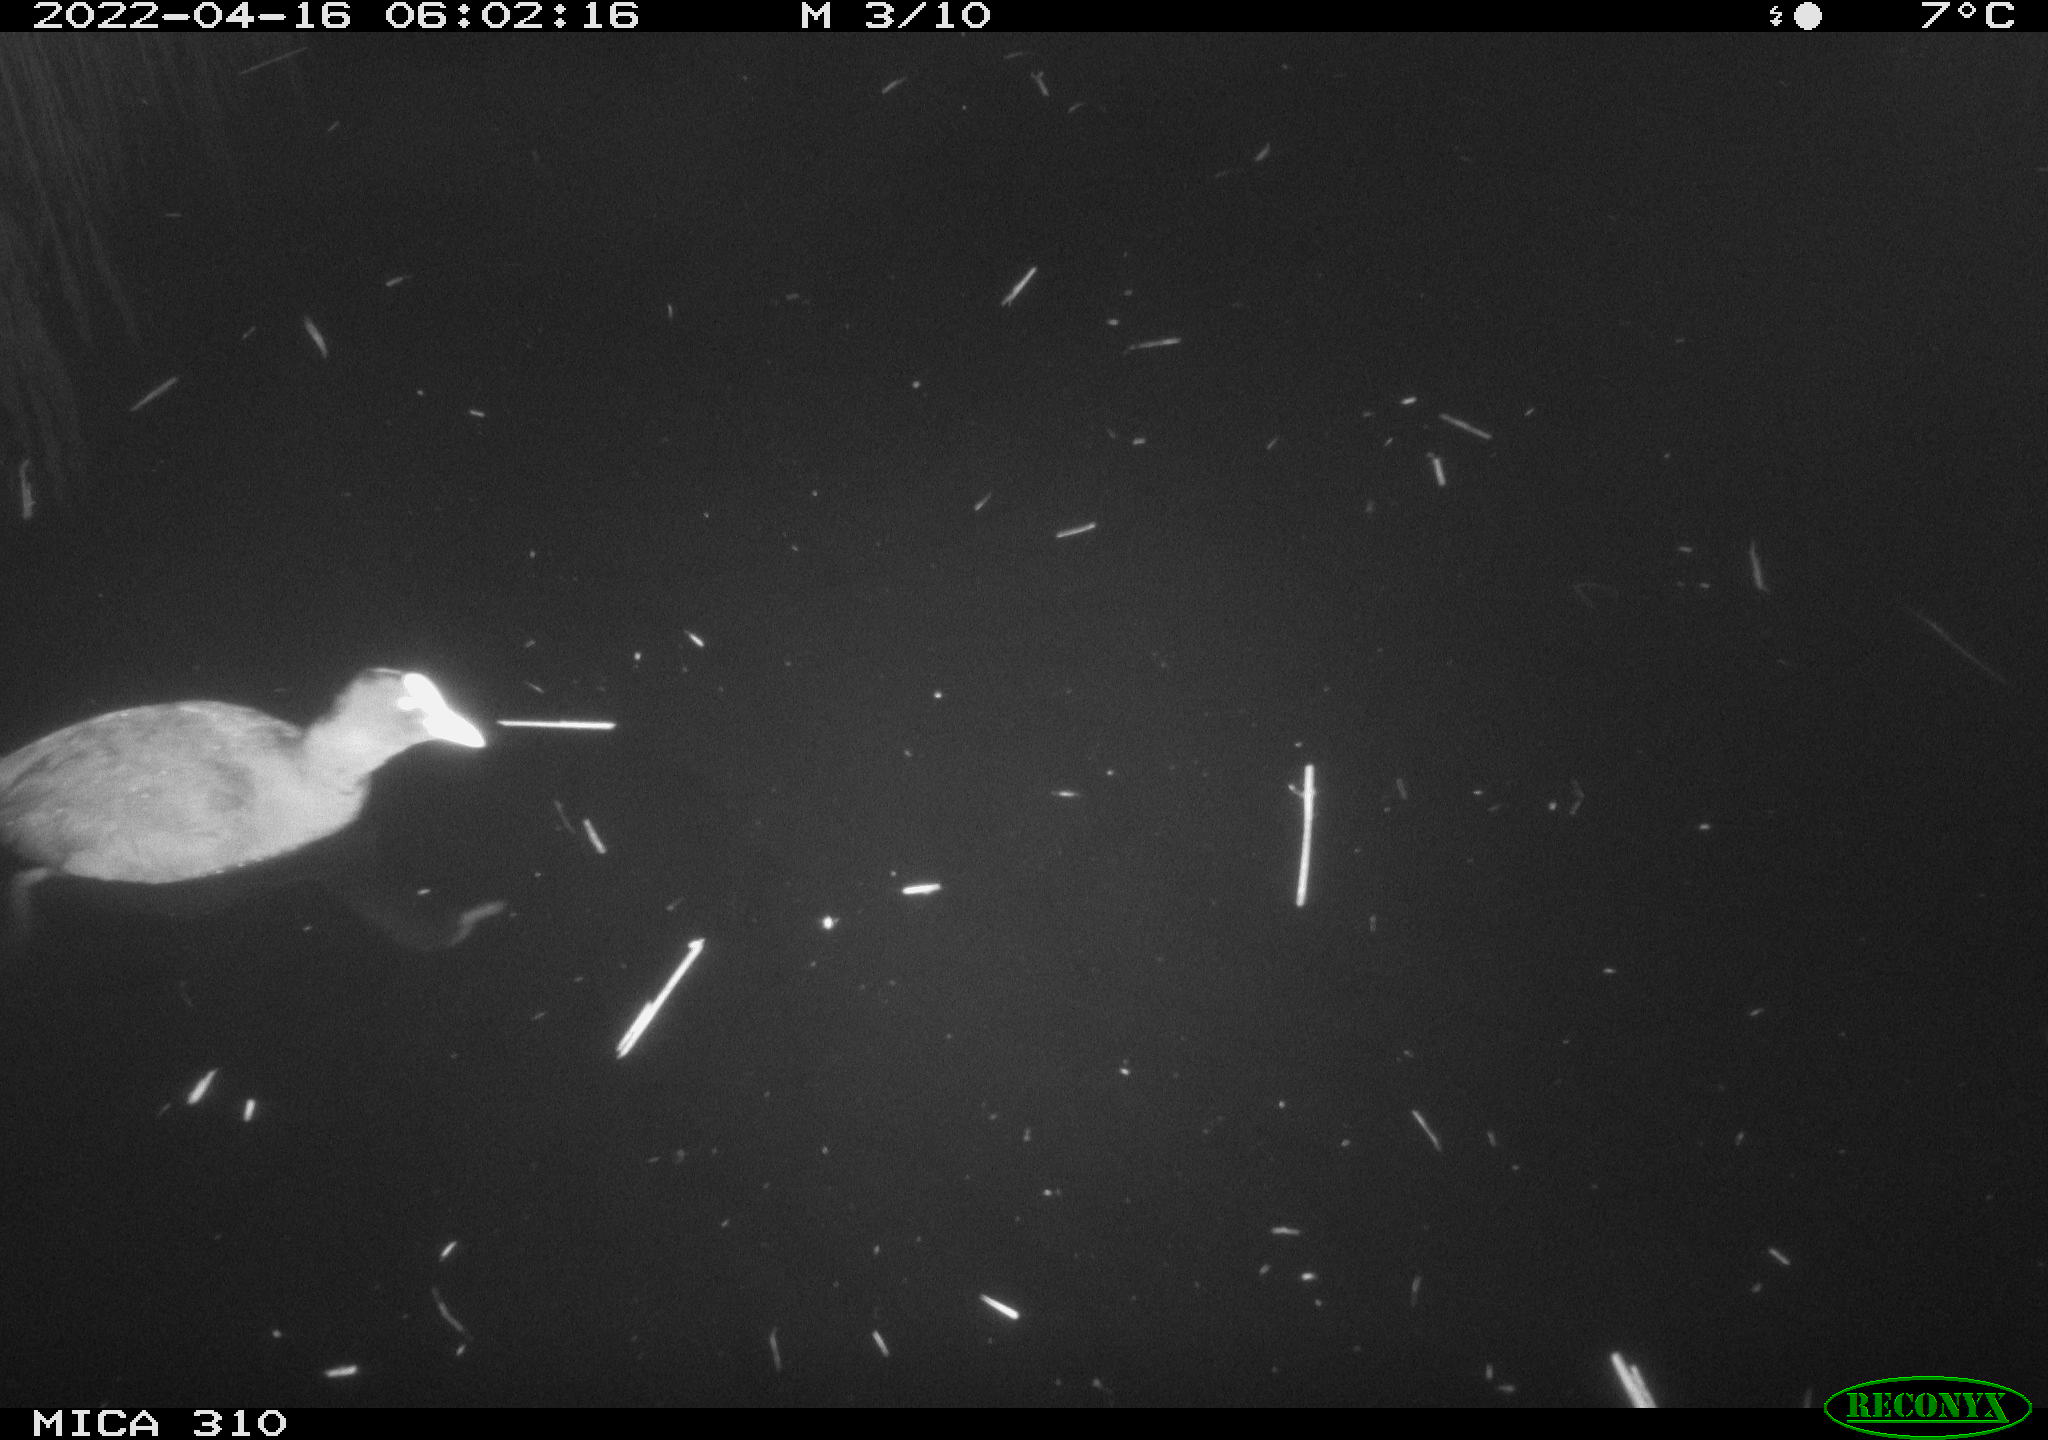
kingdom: Animalia
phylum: Chordata
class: Aves
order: Gruiformes
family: Rallidae
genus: Gallinula
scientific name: Gallinula chloropus
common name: Common moorhen
